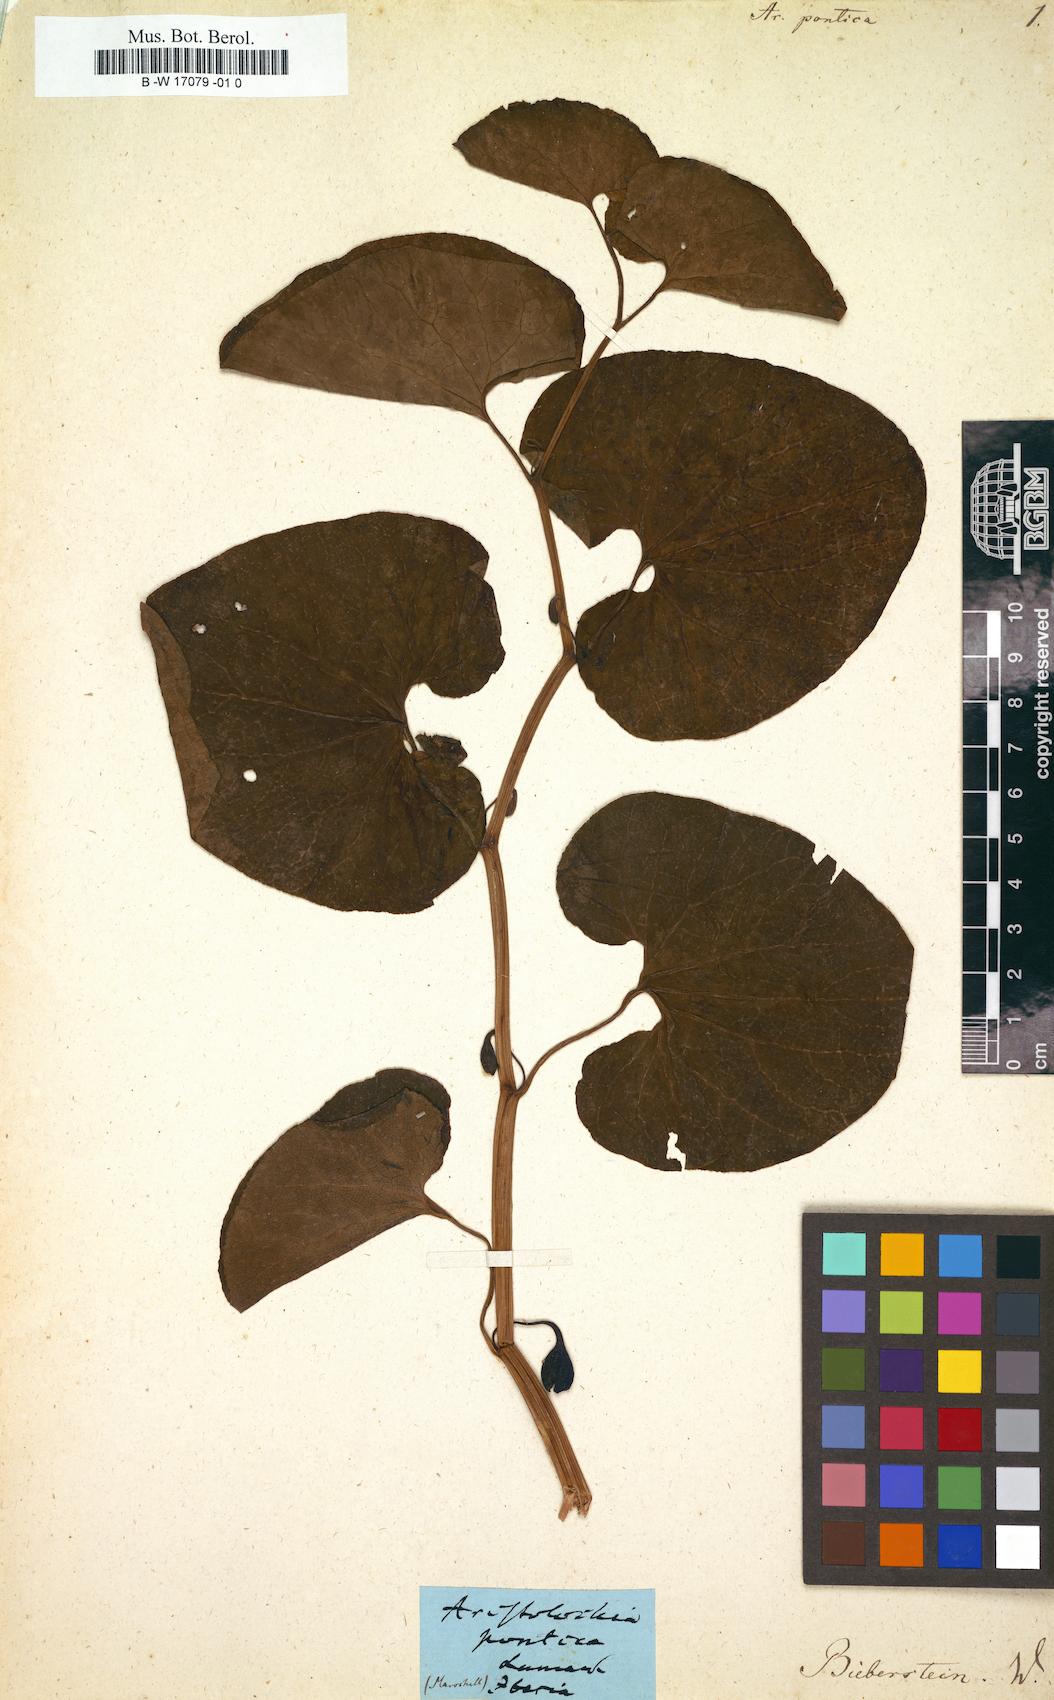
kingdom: Plantae
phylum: Tracheophyta
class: Magnoliopsida
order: Piperales
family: Aristolochiaceae
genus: Aristolochia
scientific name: Aristolochia pontica
